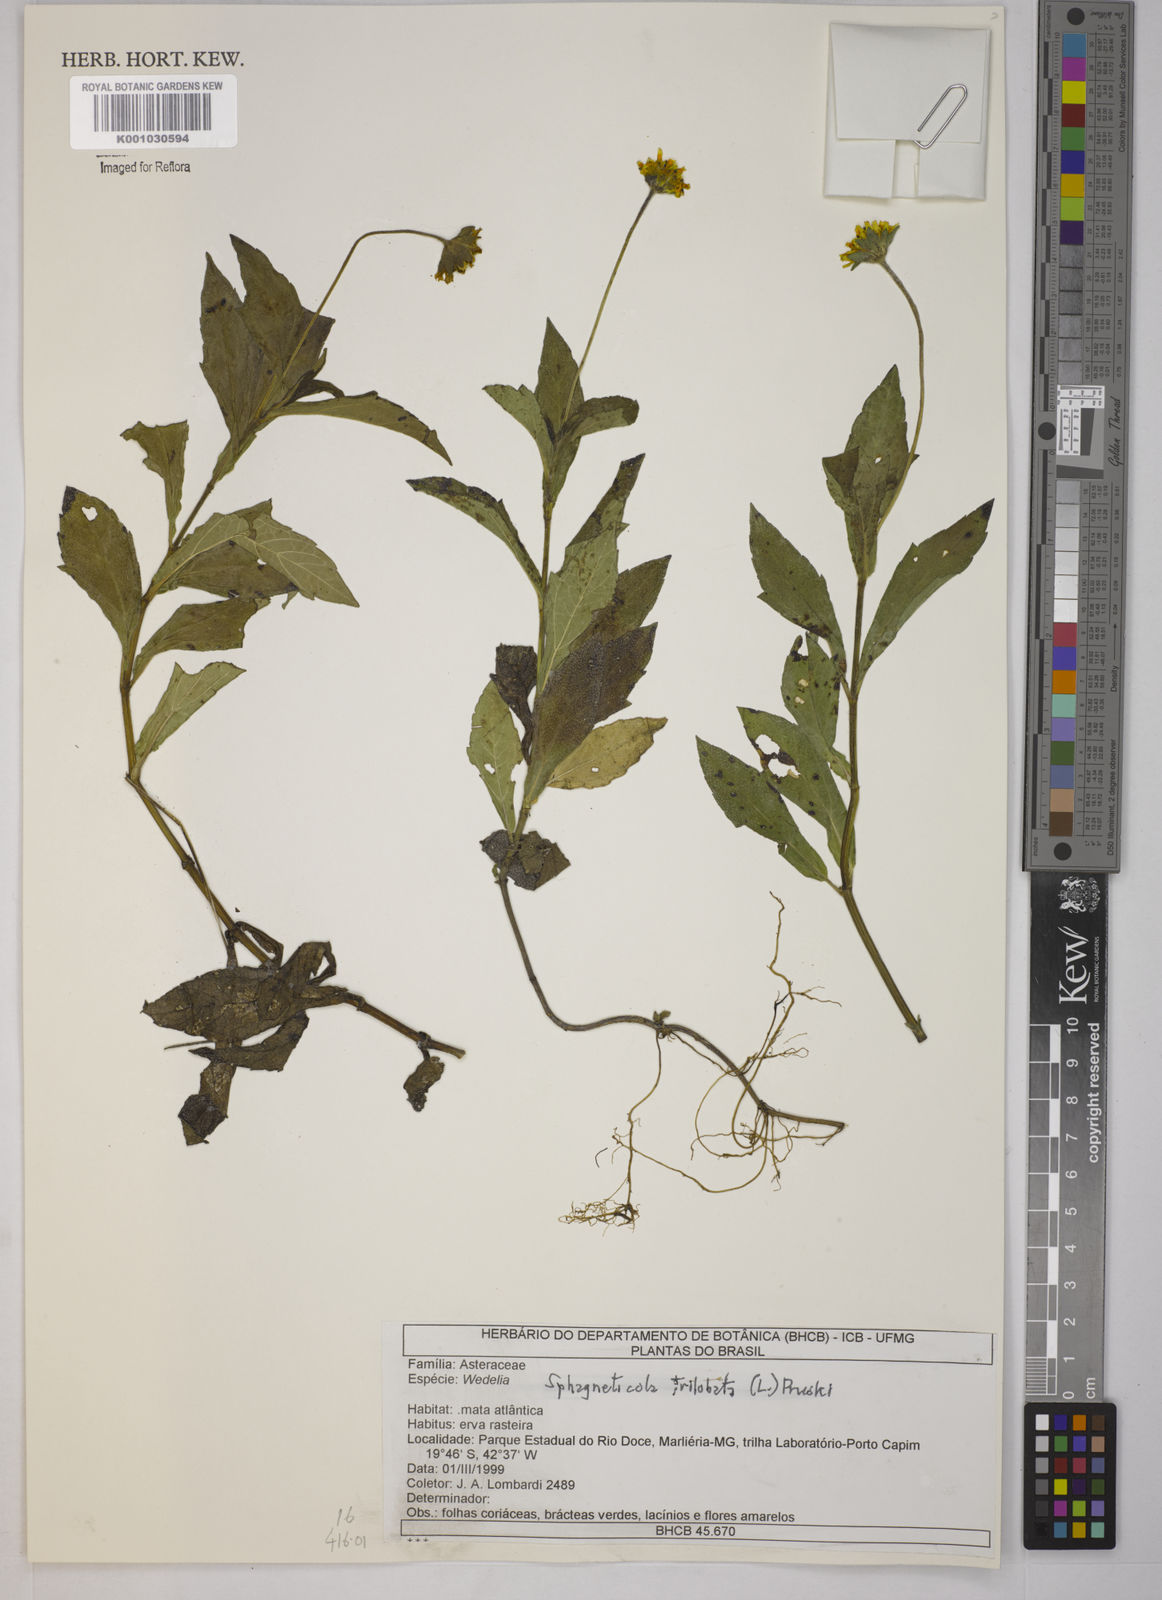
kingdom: Plantae
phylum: Tracheophyta
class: Magnoliopsida
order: Asterales
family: Asteraceae
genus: Sphagneticola
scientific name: Sphagneticola trilobata
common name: Bay biscayne creeping-oxeye
